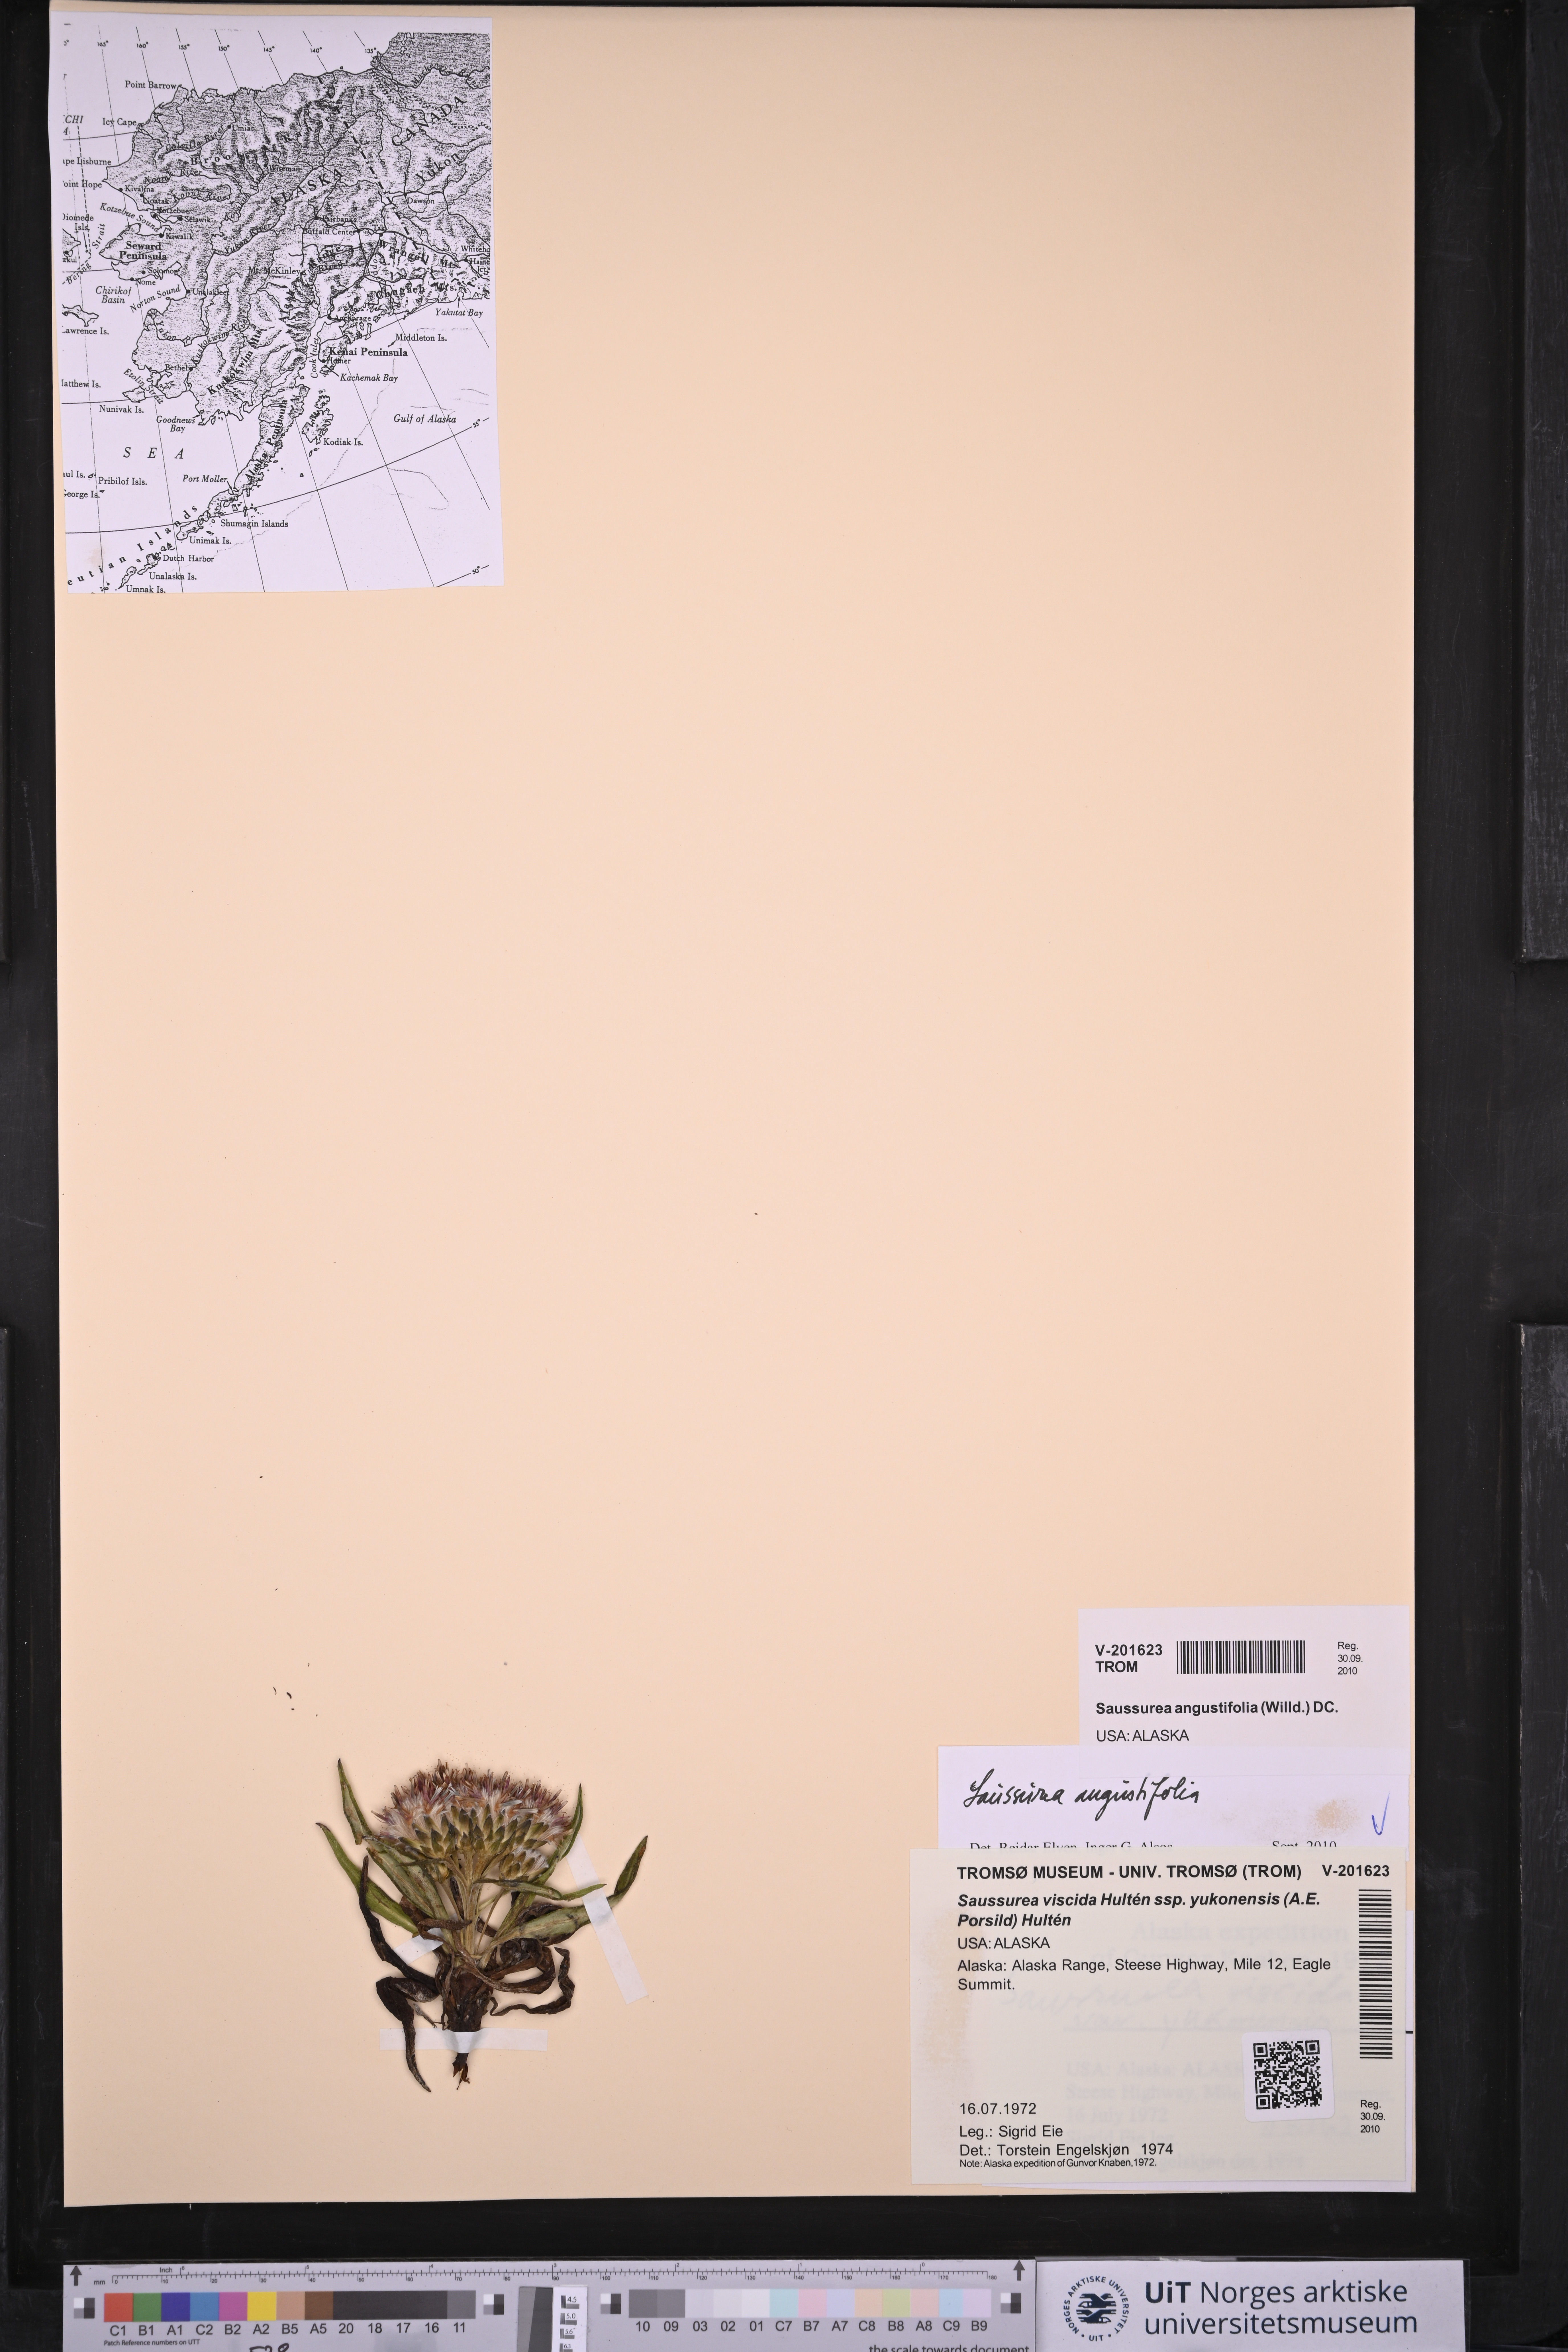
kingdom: Plantae
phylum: Tracheophyta
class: Magnoliopsida
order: Asterales
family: Asteraceae
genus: Saussurea
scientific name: Saussurea angustifolia
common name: Common saussurea
